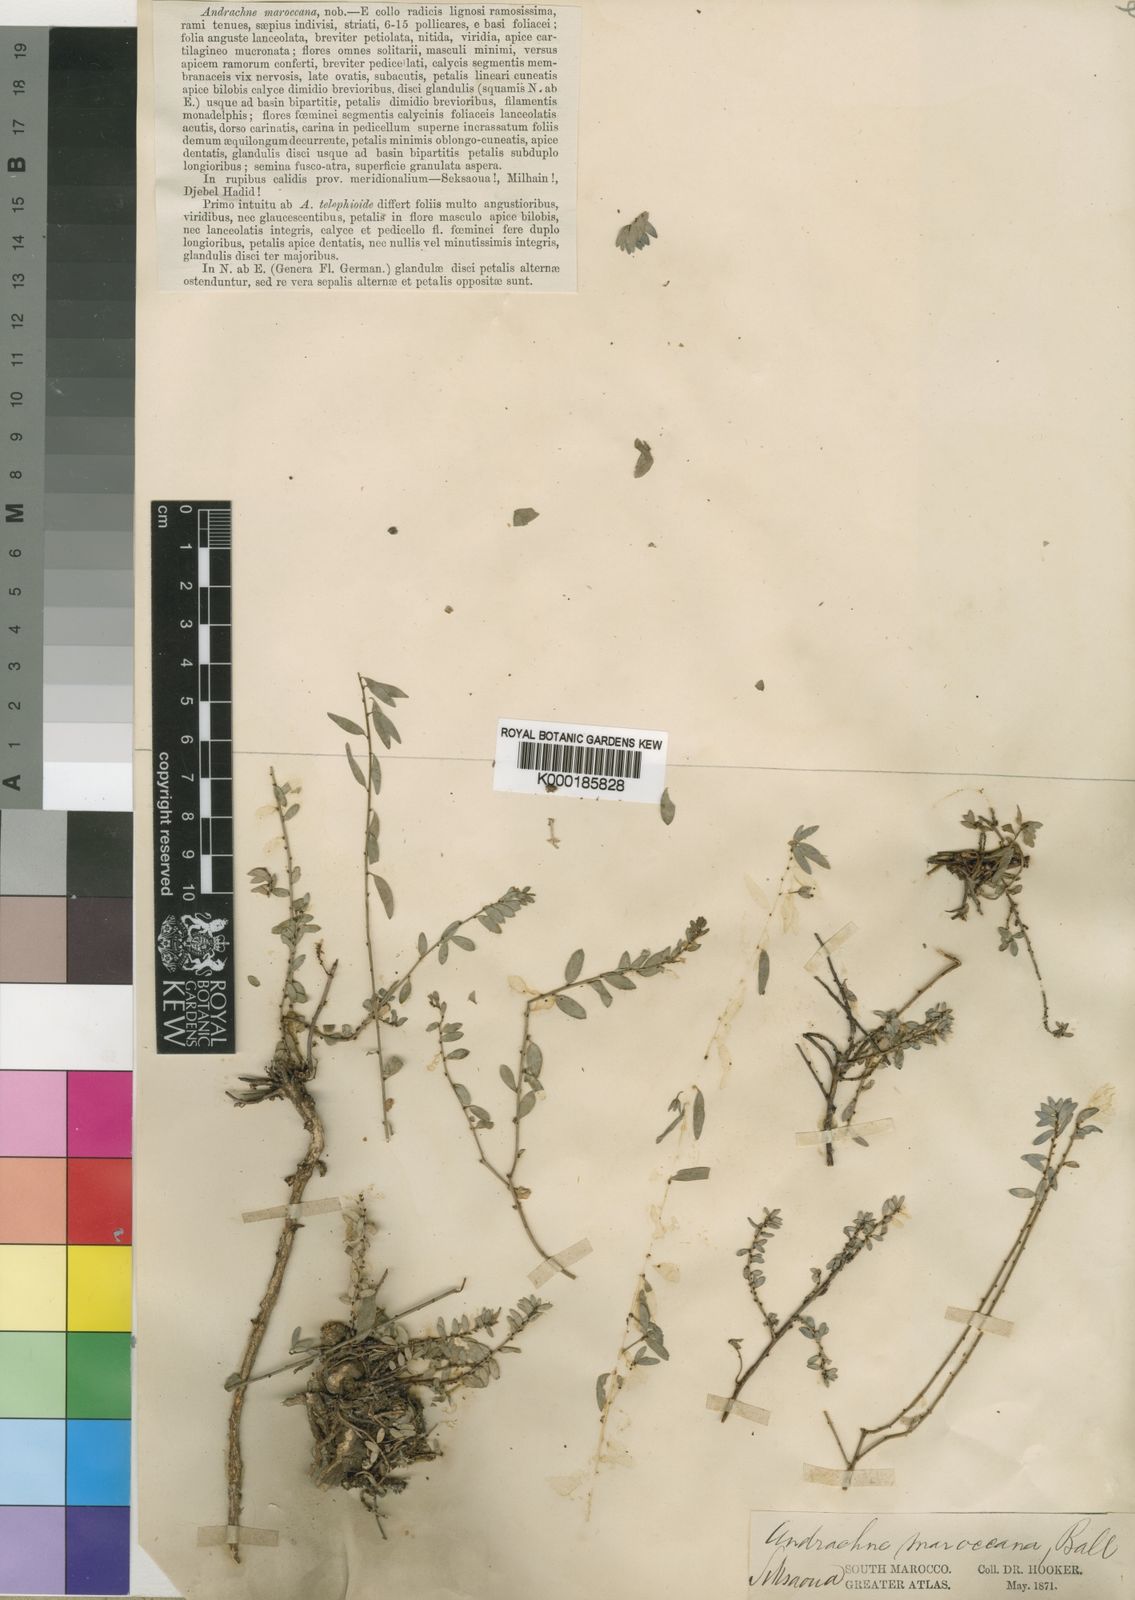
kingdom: Plantae
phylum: Tracheophyta
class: Magnoliopsida
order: Malpighiales
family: Phyllanthaceae
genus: Andrachne
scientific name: Andrachne maroccana
